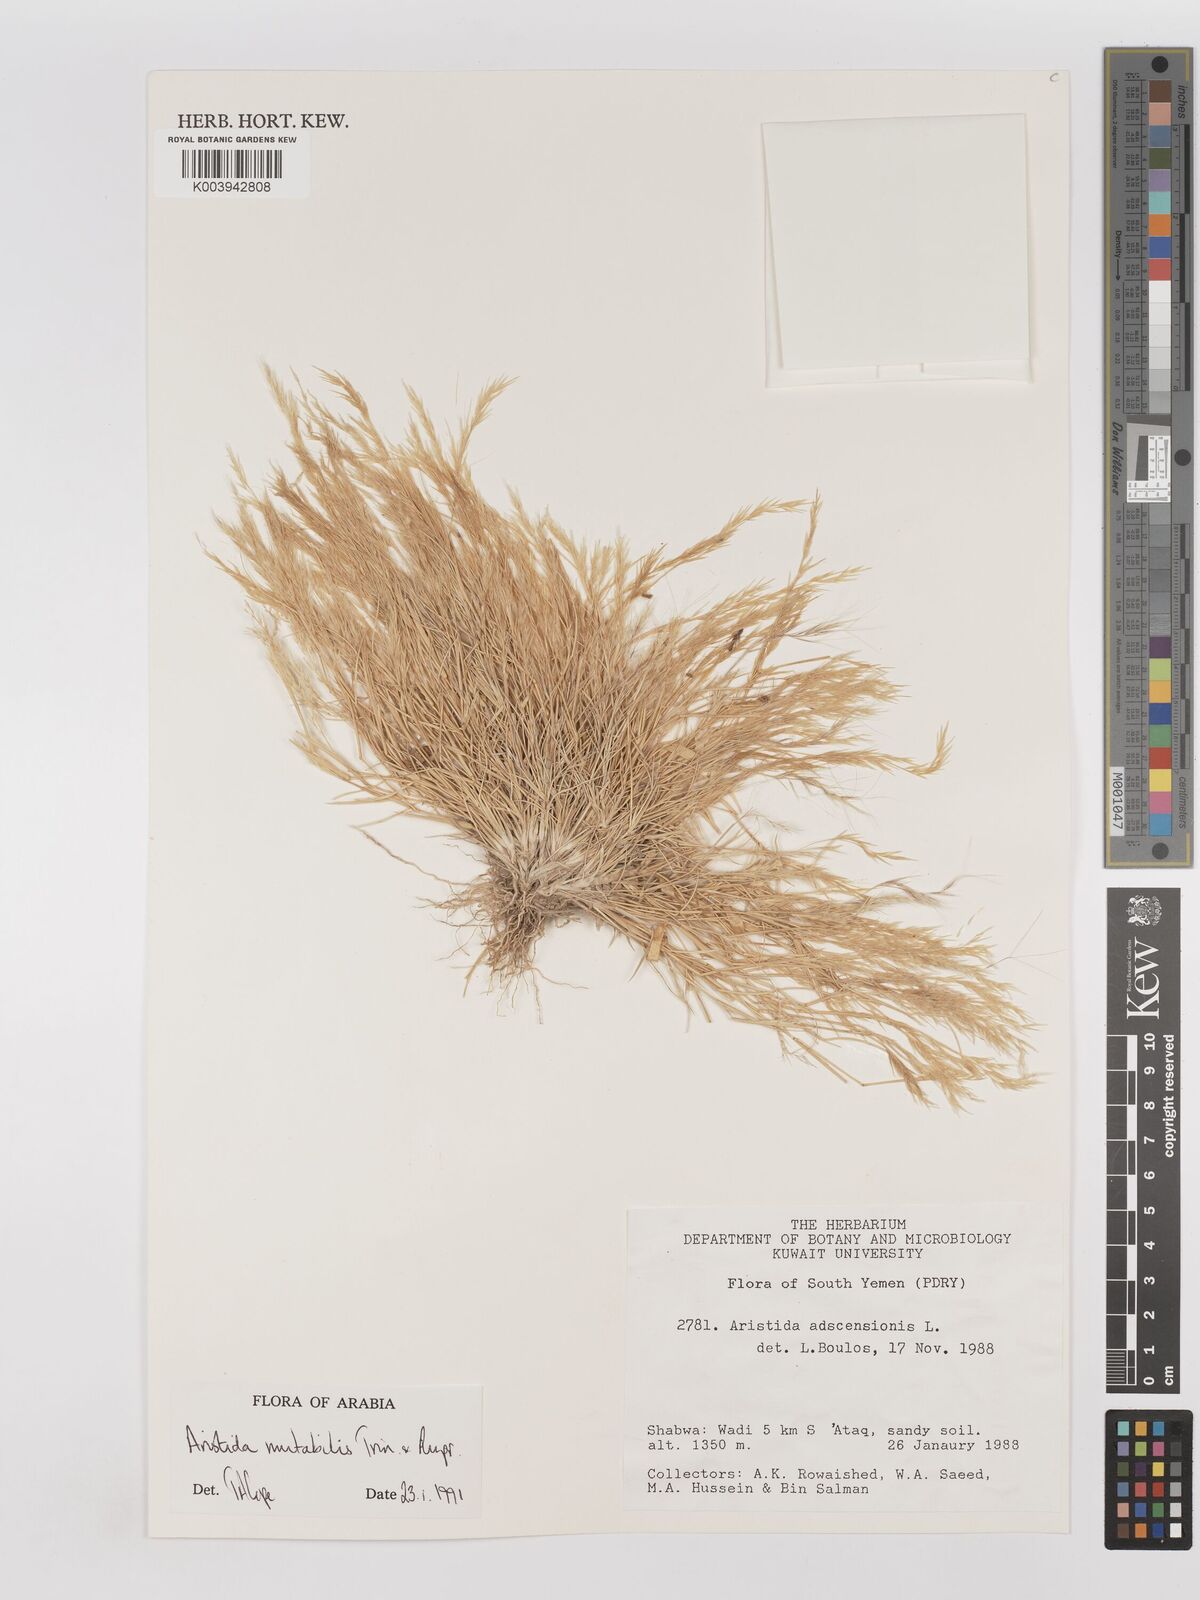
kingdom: Plantae
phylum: Tracheophyta
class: Liliopsida
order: Poales
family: Poaceae
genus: Aristida
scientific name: Aristida mutabilis
